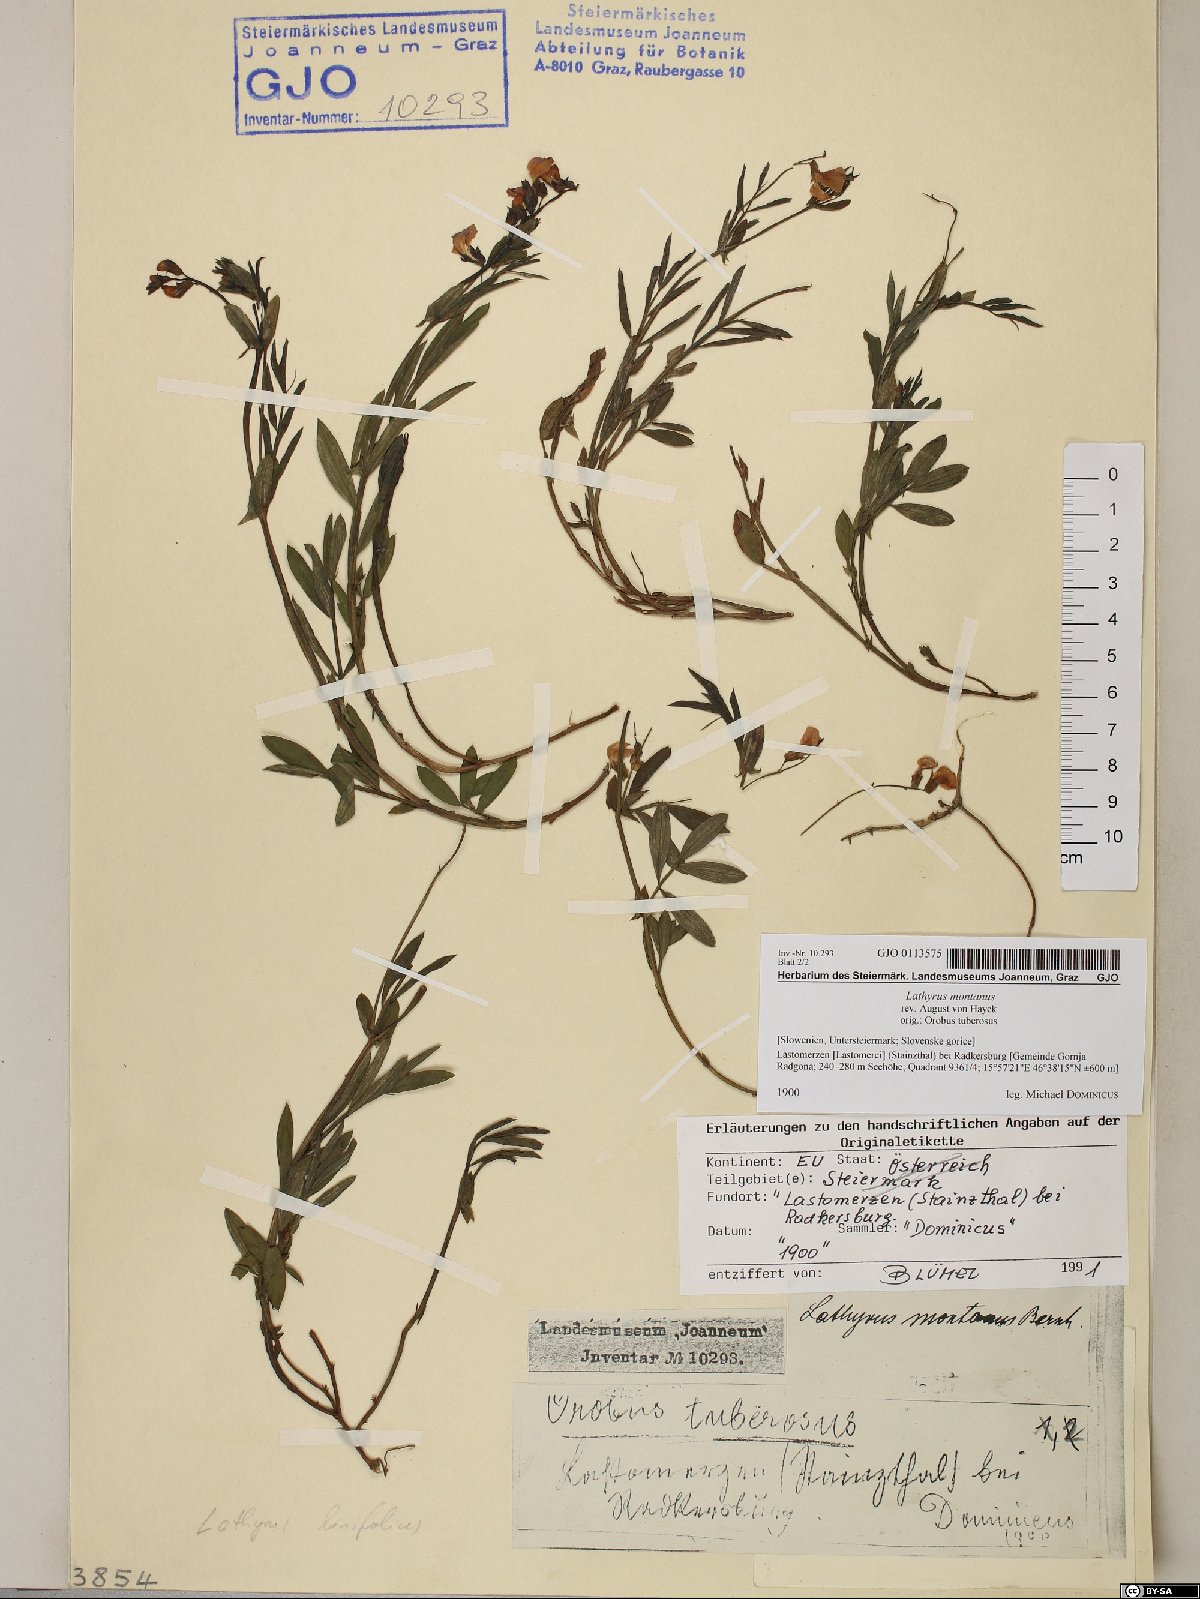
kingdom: Plantae
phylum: Tracheophyta
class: Magnoliopsida
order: Fabales
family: Fabaceae
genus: Lathyrus
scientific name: Lathyrus linifolius
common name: Bitter-vetch
